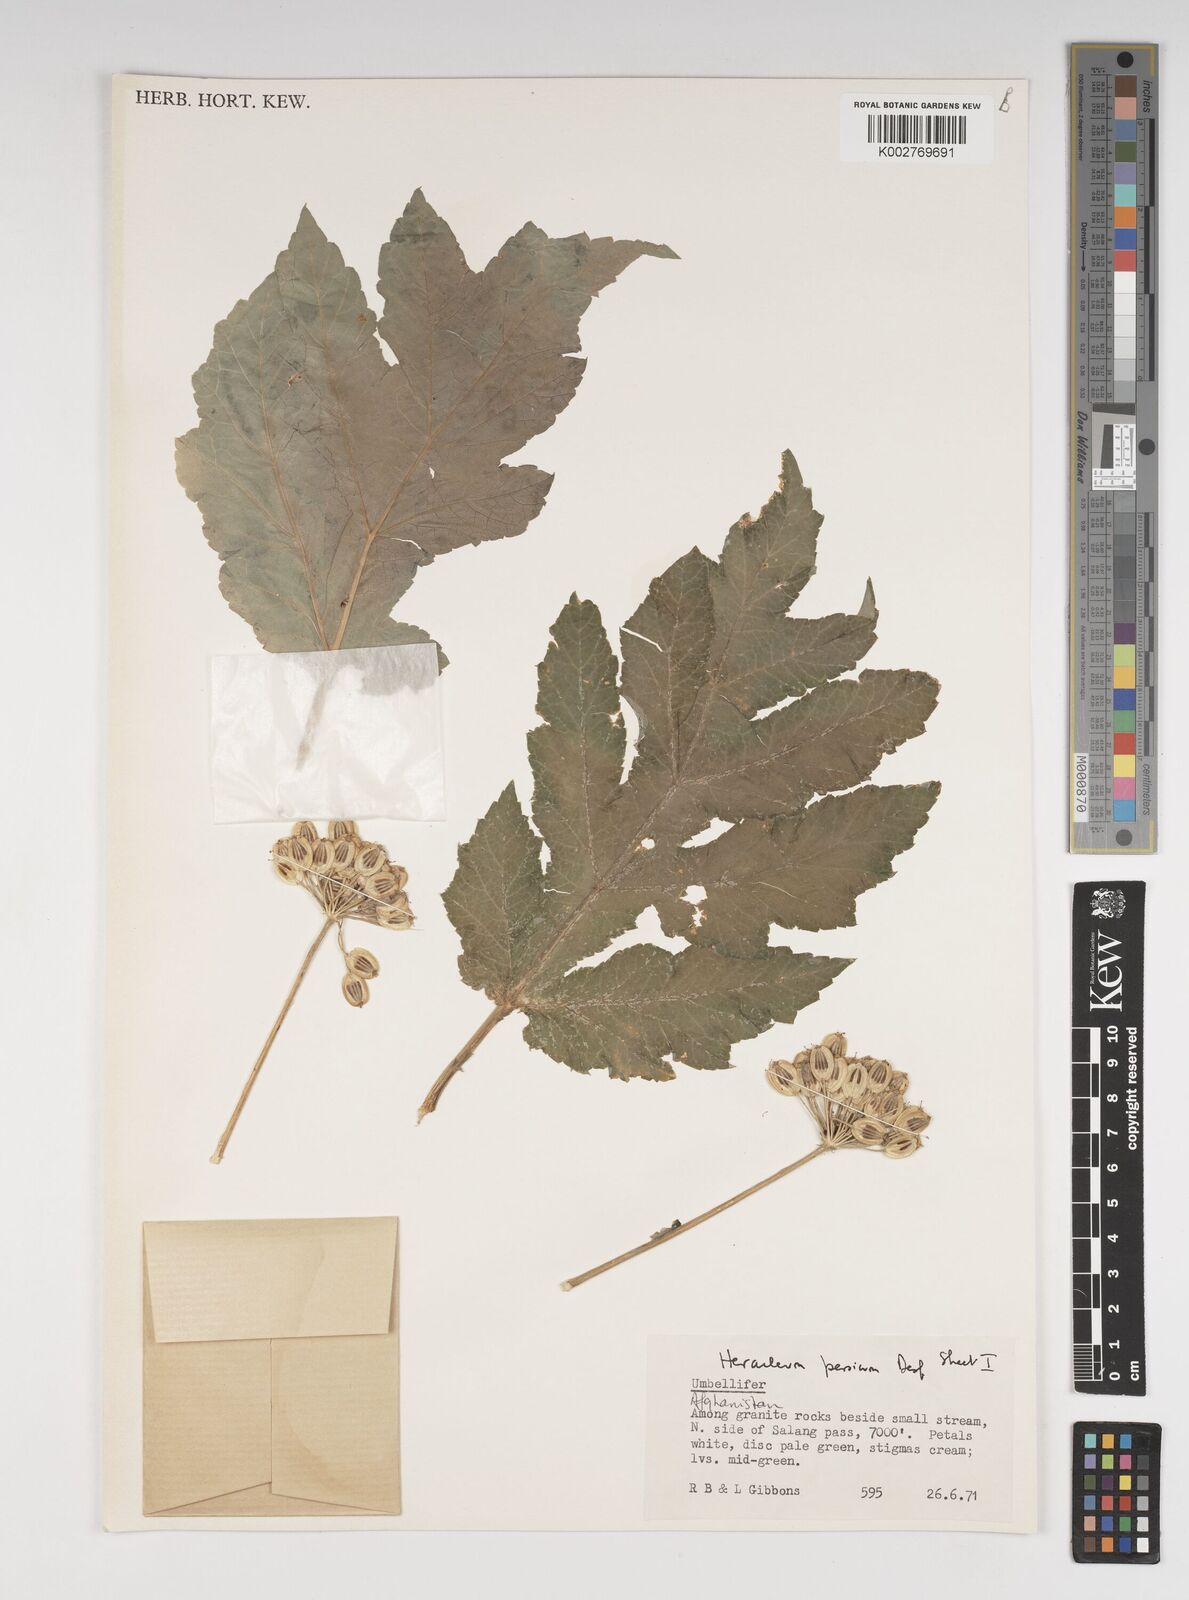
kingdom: Plantae
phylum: Tracheophyta
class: Magnoliopsida
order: Apiales
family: Apiaceae
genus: Heracleum
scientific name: Heracleum persicum
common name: Persian hogweed
